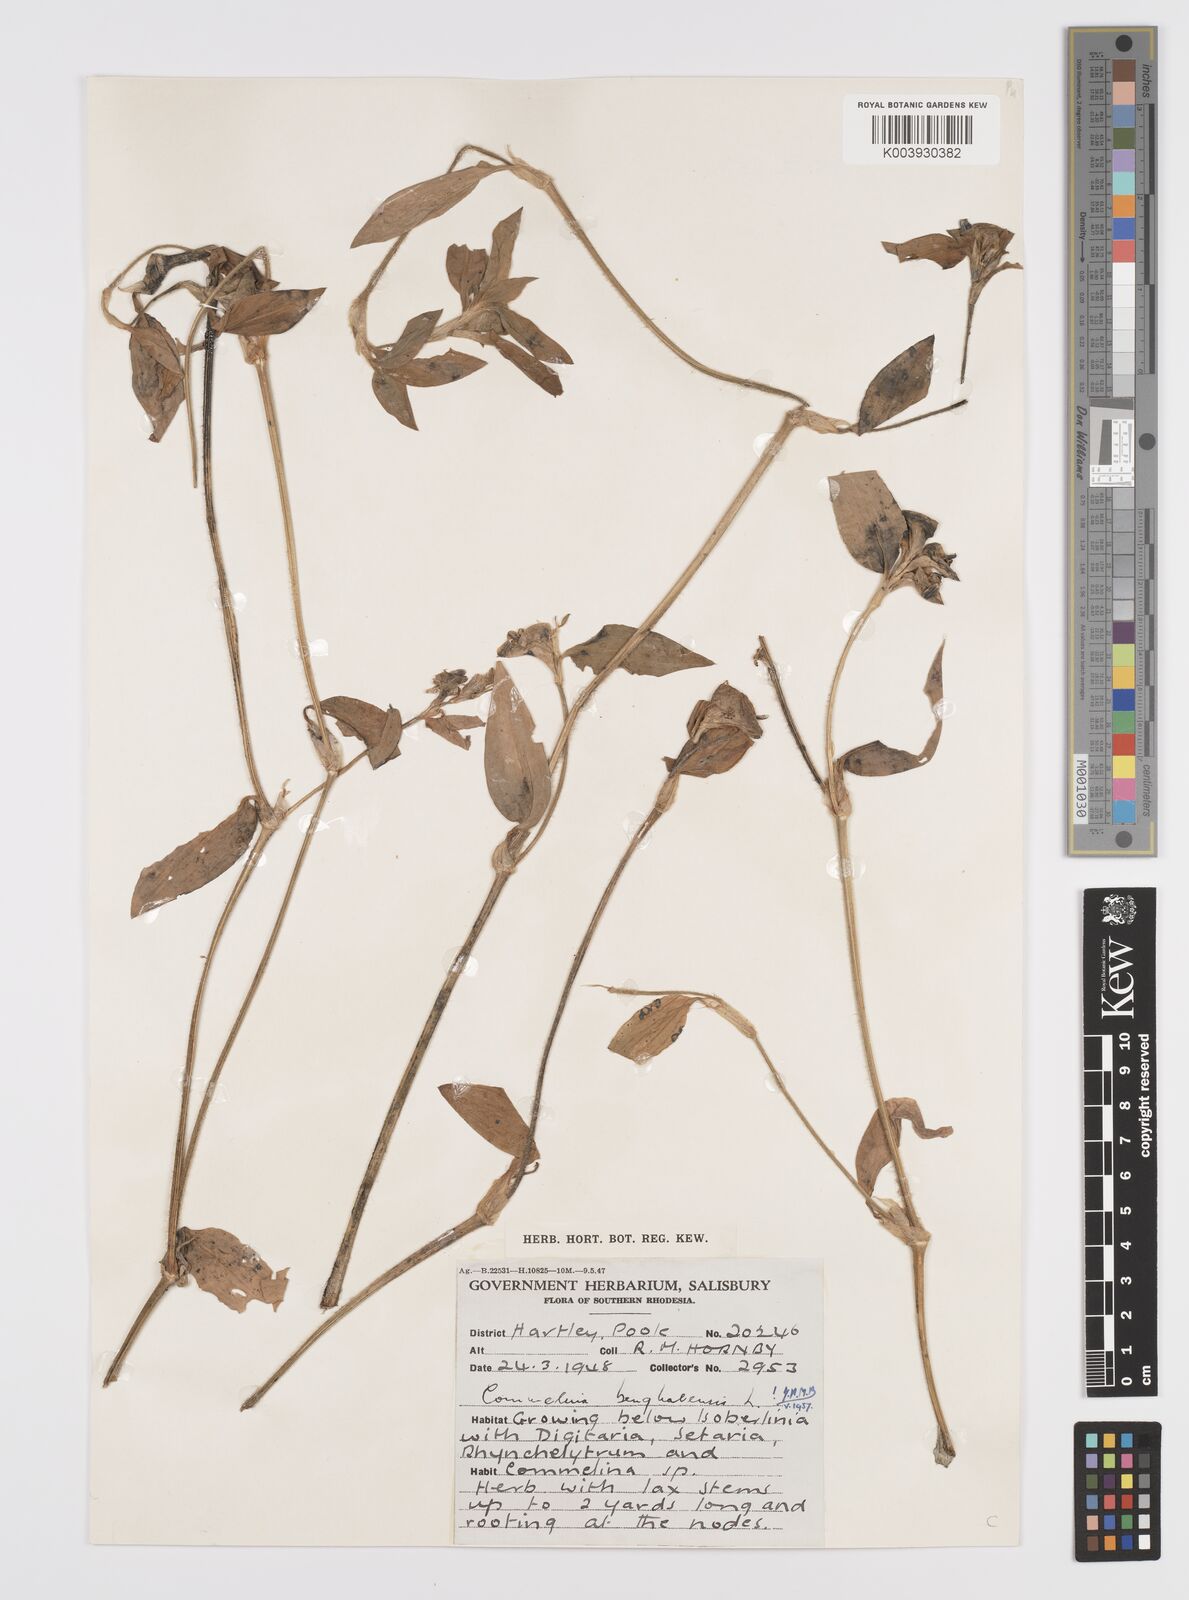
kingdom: Plantae
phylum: Tracheophyta
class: Liliopsida
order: Commelinales
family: Commelinaceae
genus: Commelina
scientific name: Commelina benghalensis
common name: Jio
